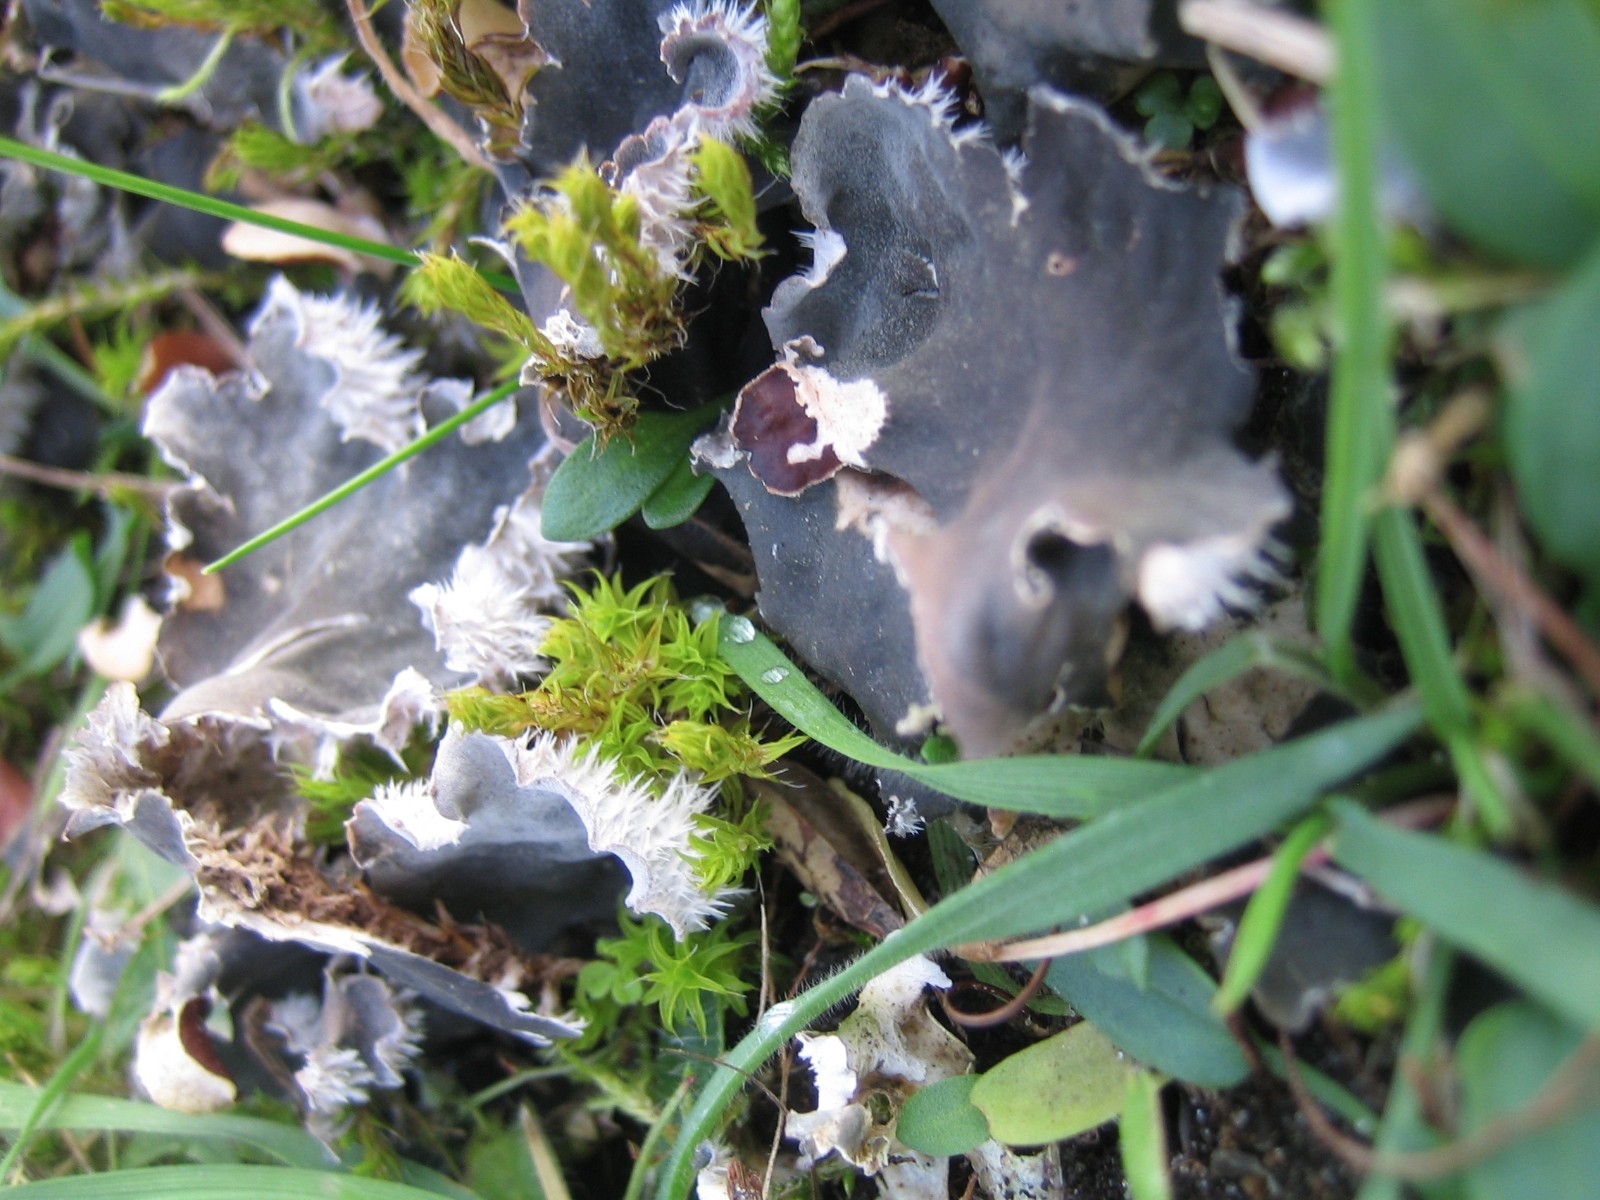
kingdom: Fungi
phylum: Ascomycota
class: Lecanoromycetes
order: Peltigerales
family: Peltigeraceae
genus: Peltigera
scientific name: Peltigera canina
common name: hunde-skjoldlav
